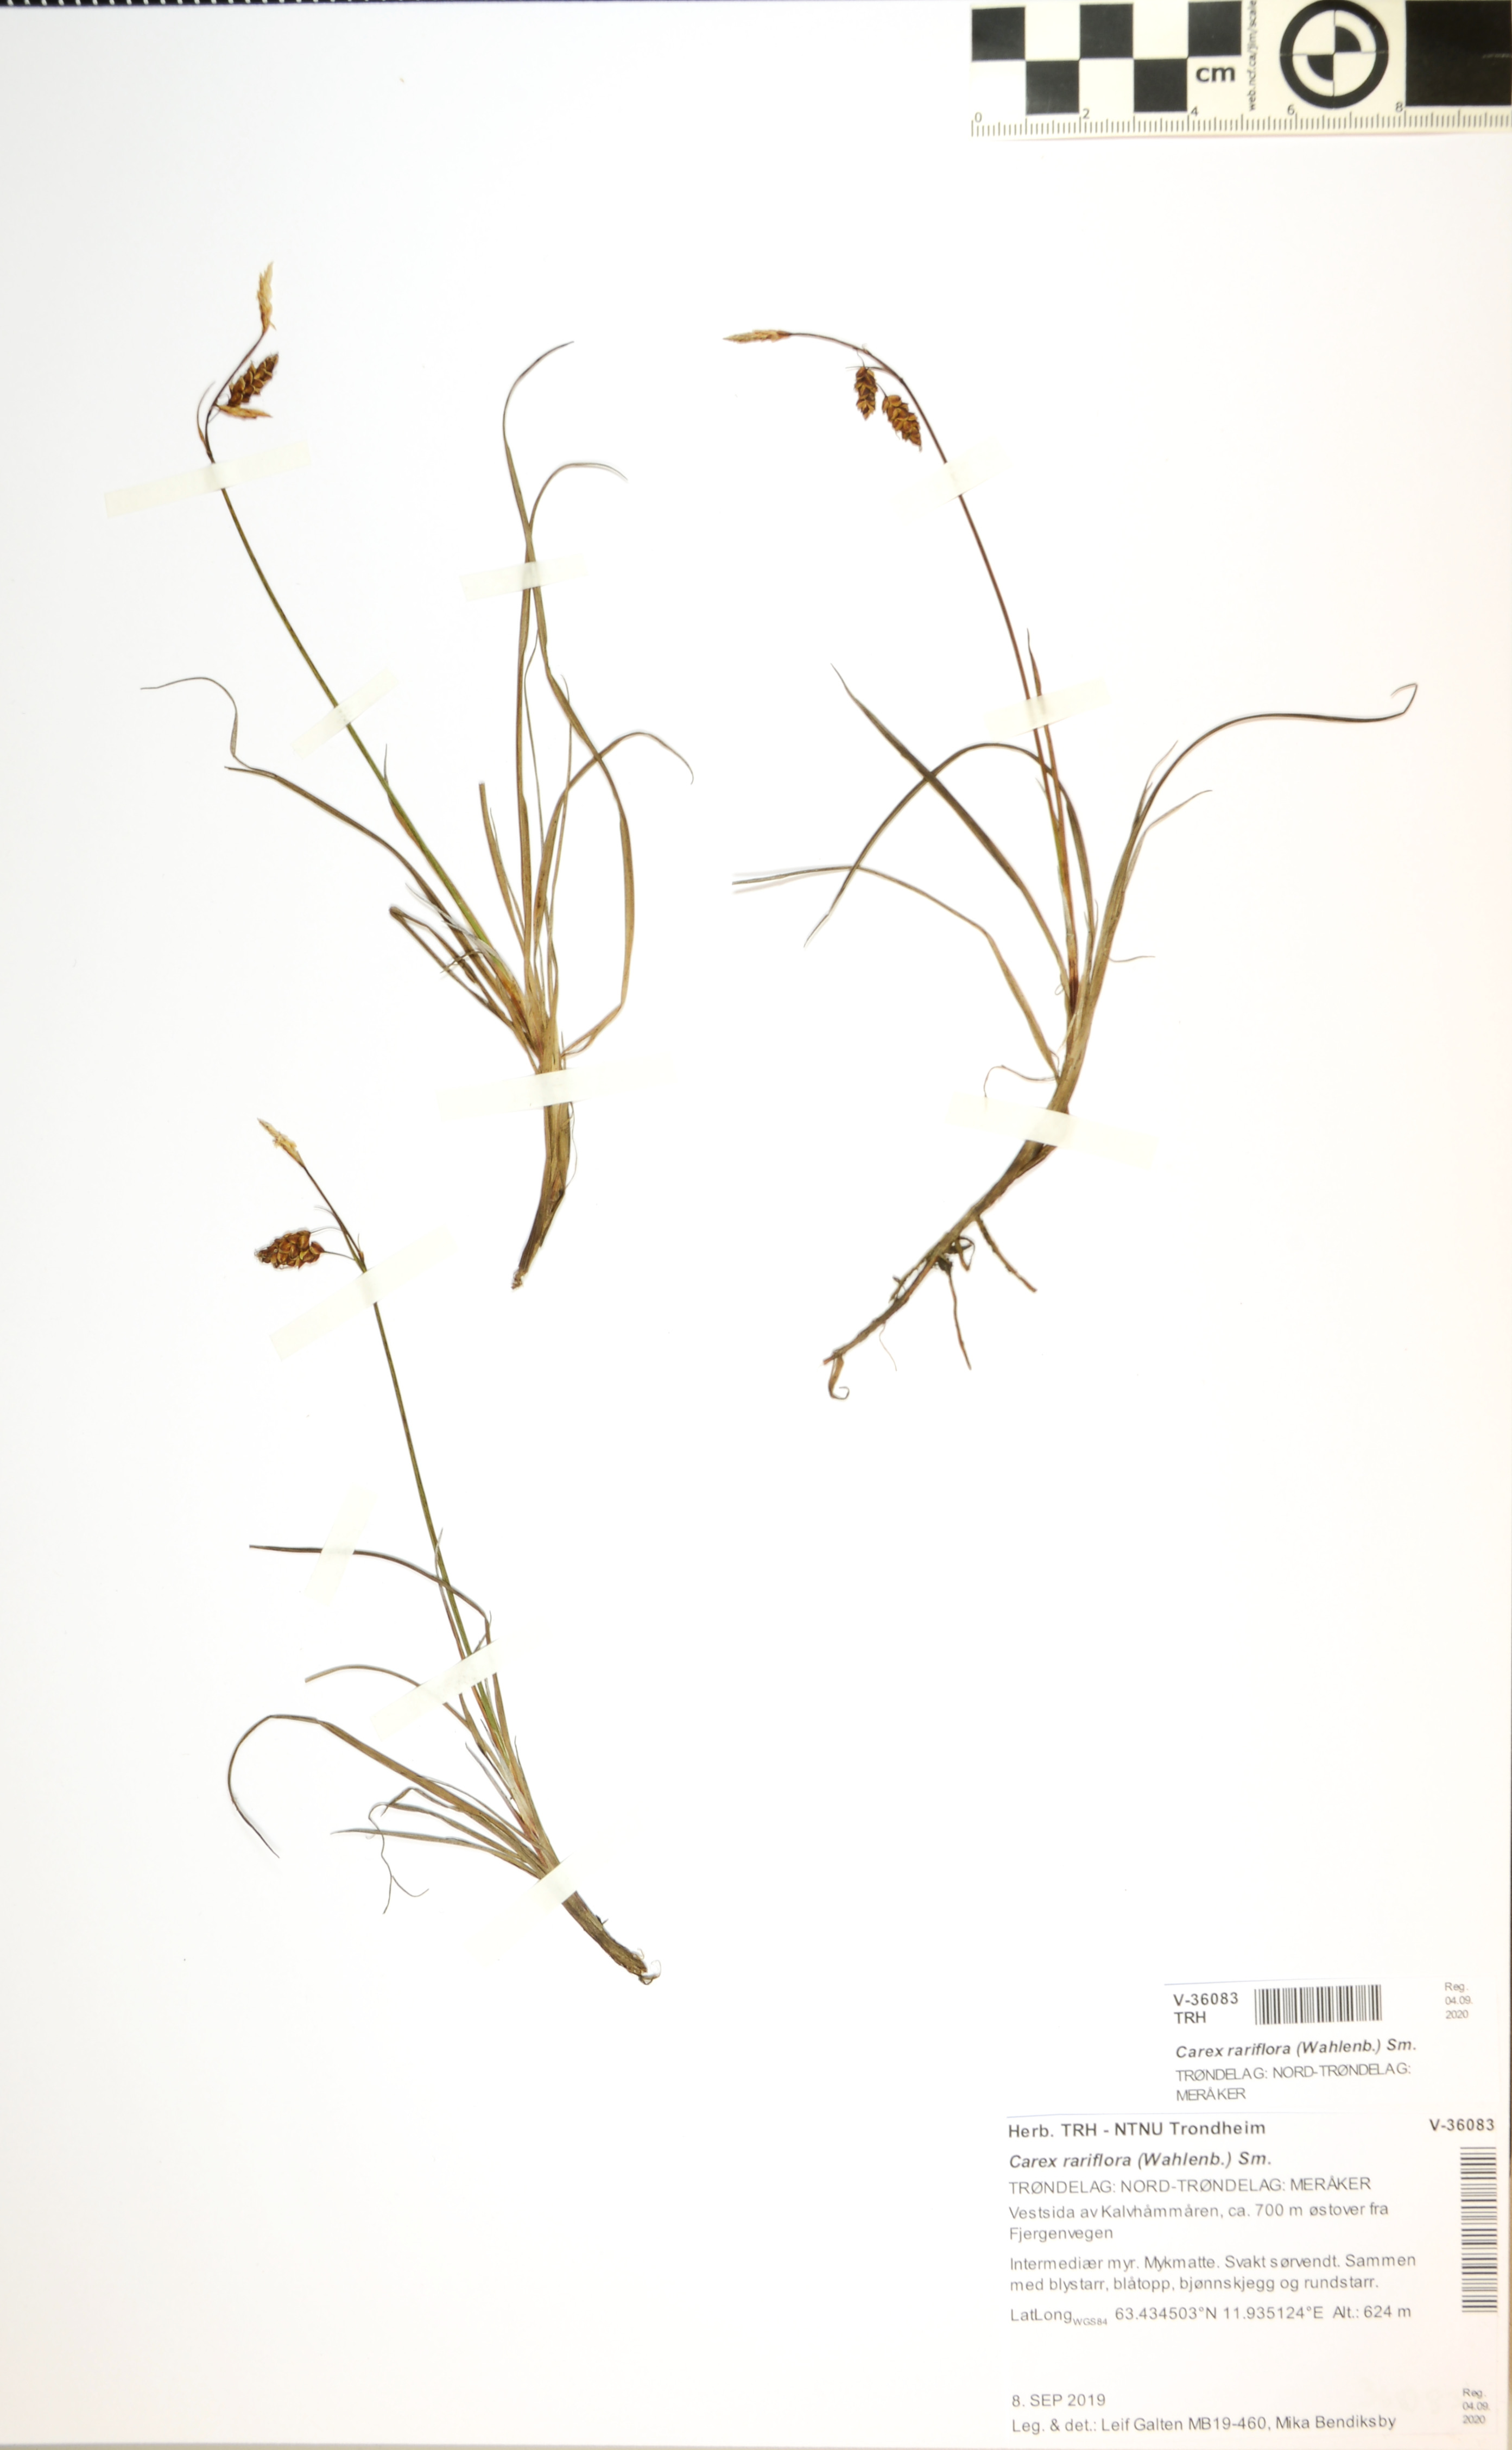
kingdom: Plantae
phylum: Tracheophyta
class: Liliopsida
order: Poales
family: Cyperaceae
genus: Carex
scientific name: Carex rariflora
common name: Loose-flowered alpine sedge
